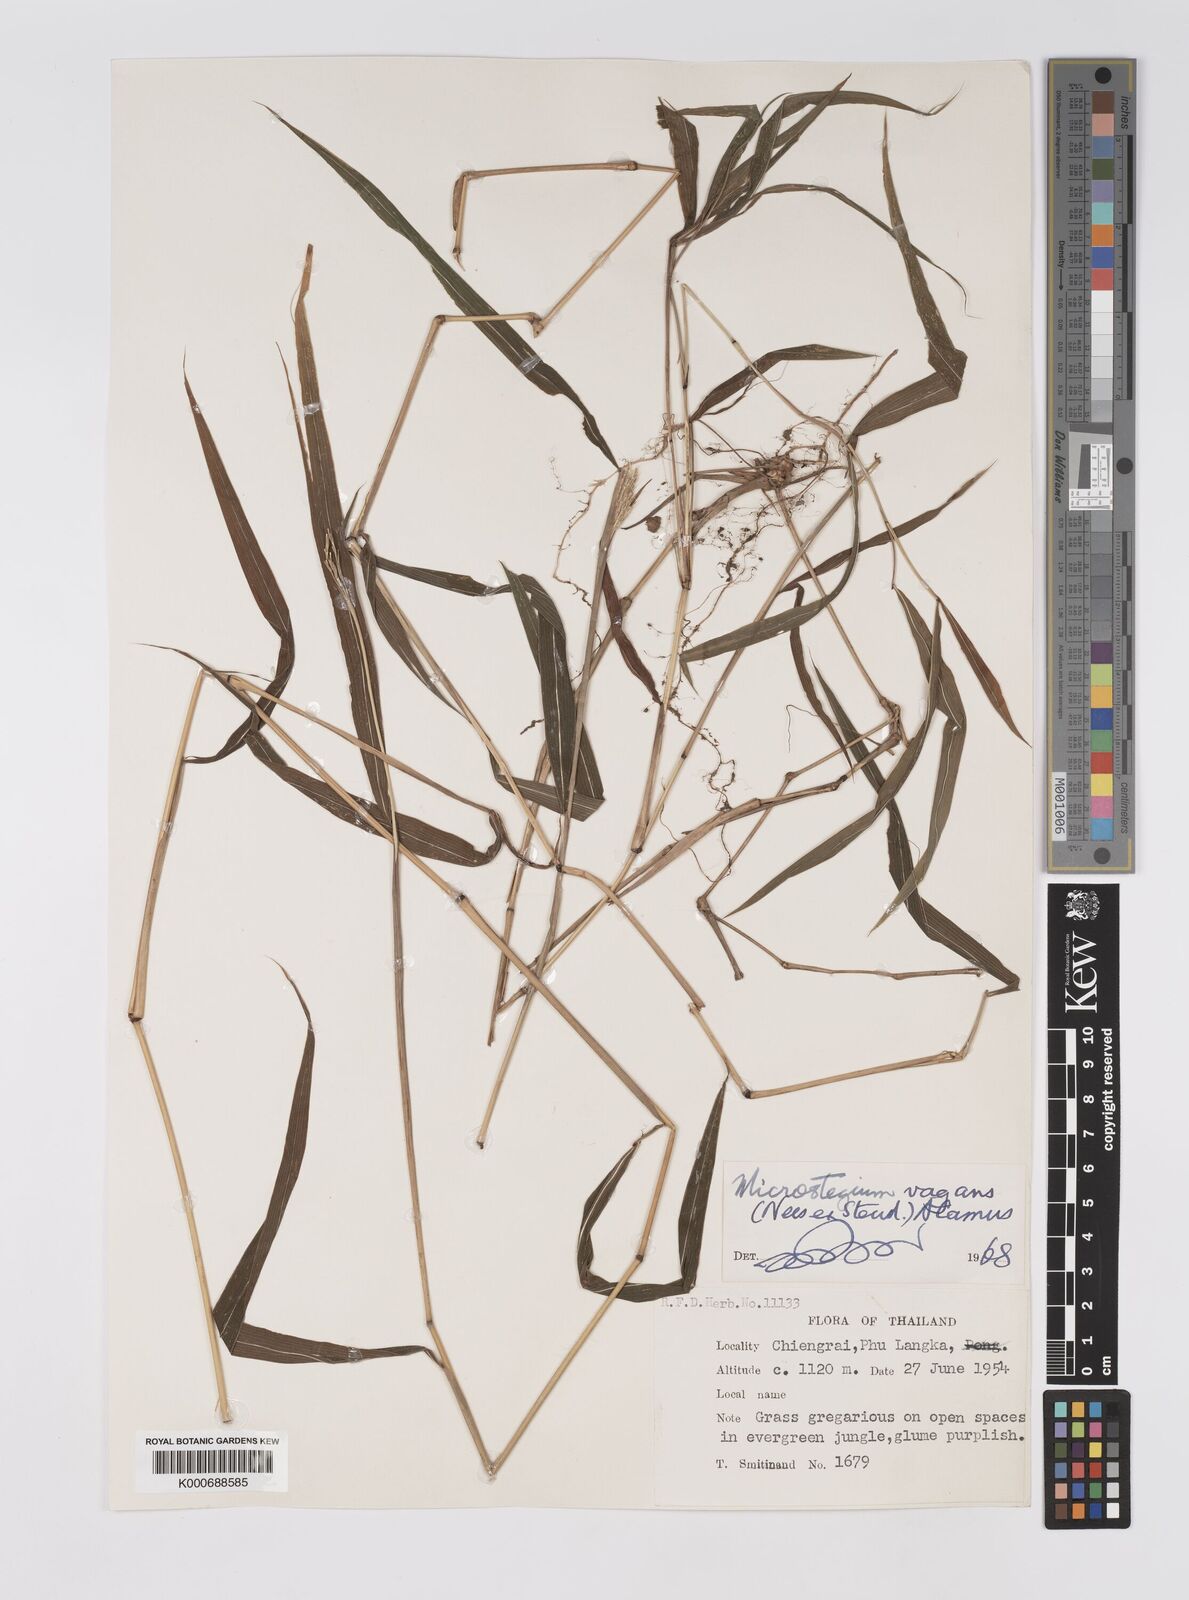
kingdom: Plantae
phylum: Tracheophyta
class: Liliopsida
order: Poales
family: Poaceae
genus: Microstegium
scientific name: Microstegium fasciculatum
